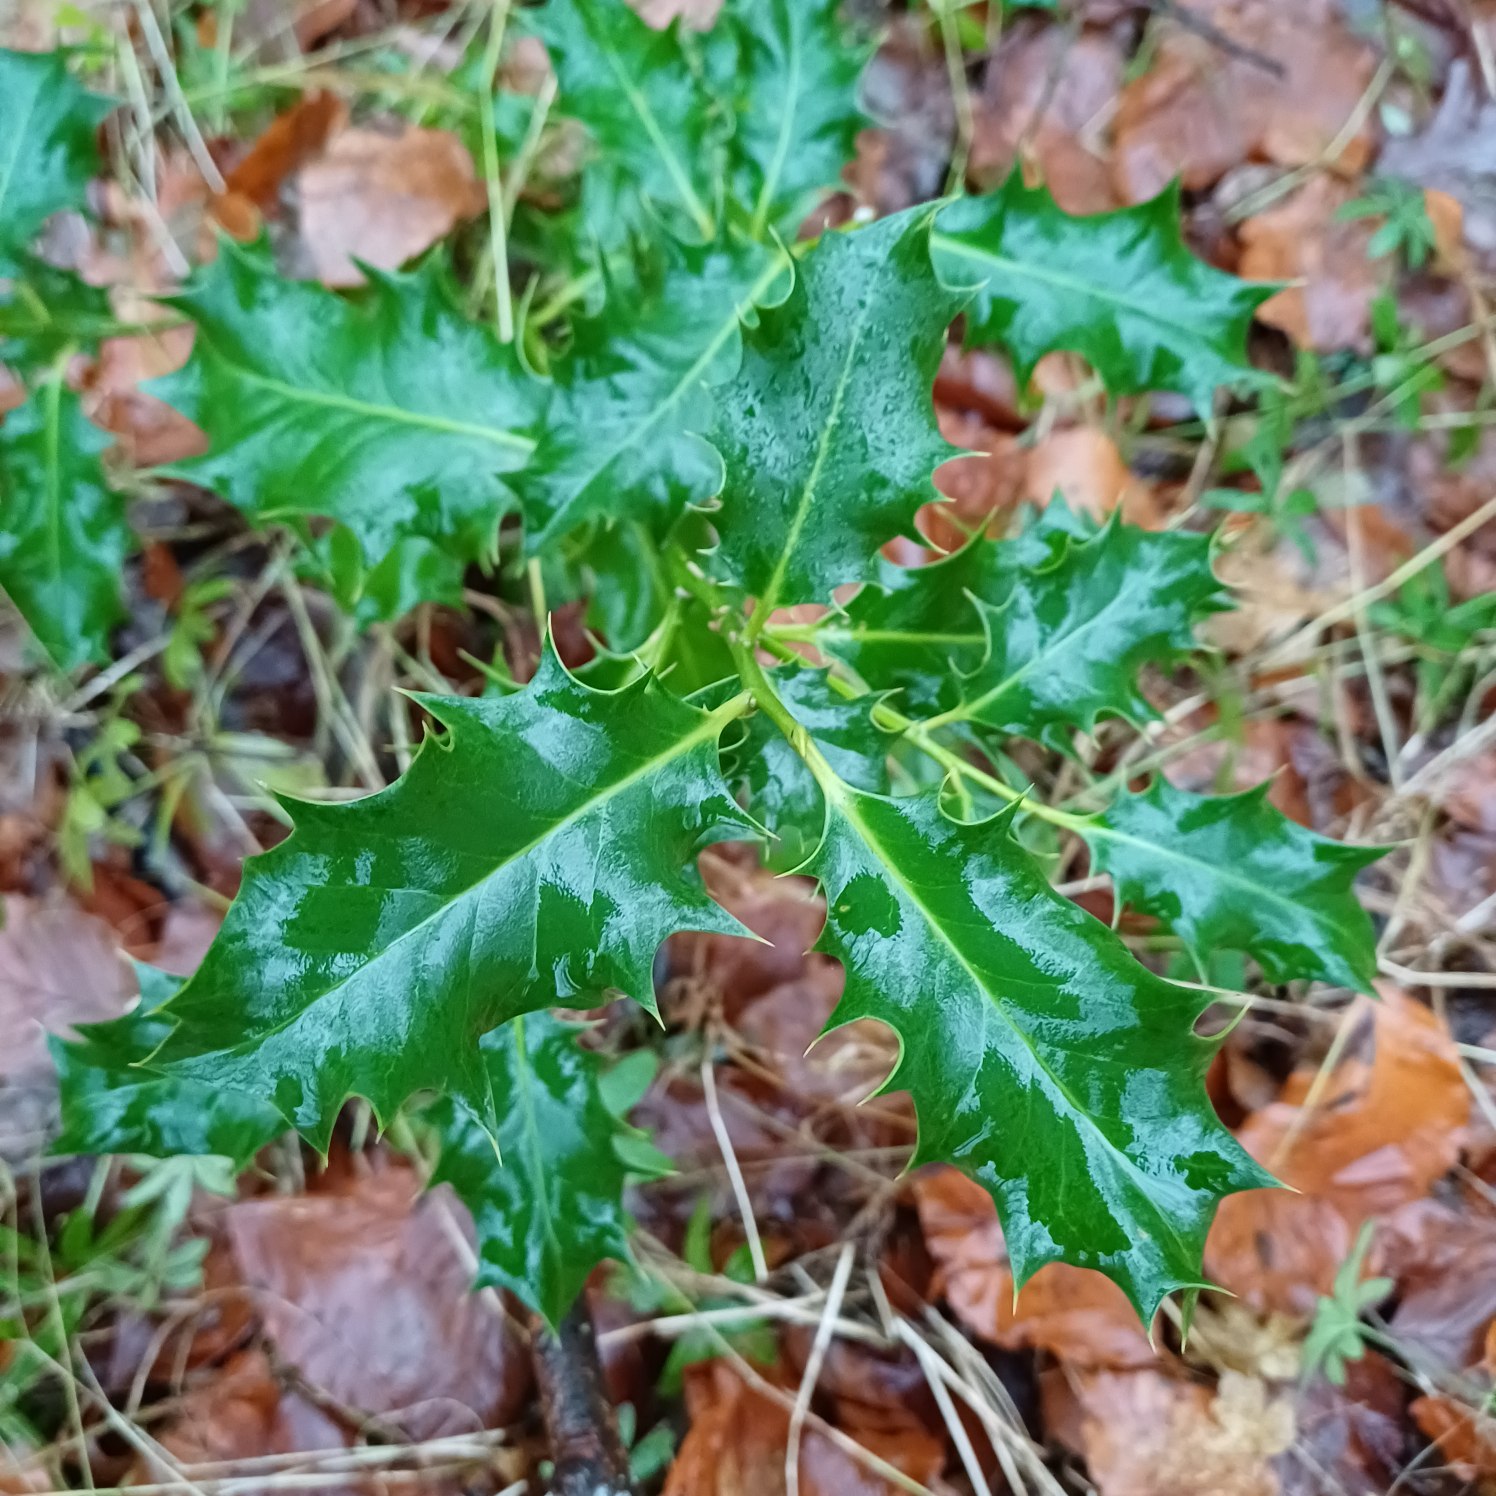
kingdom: Plantae
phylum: Tracheophyta
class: Magnoliopsida
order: Aquifoliales
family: Aquifoliaceae
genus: Ilex
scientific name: Ilex aquifolium
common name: Kristtorn
